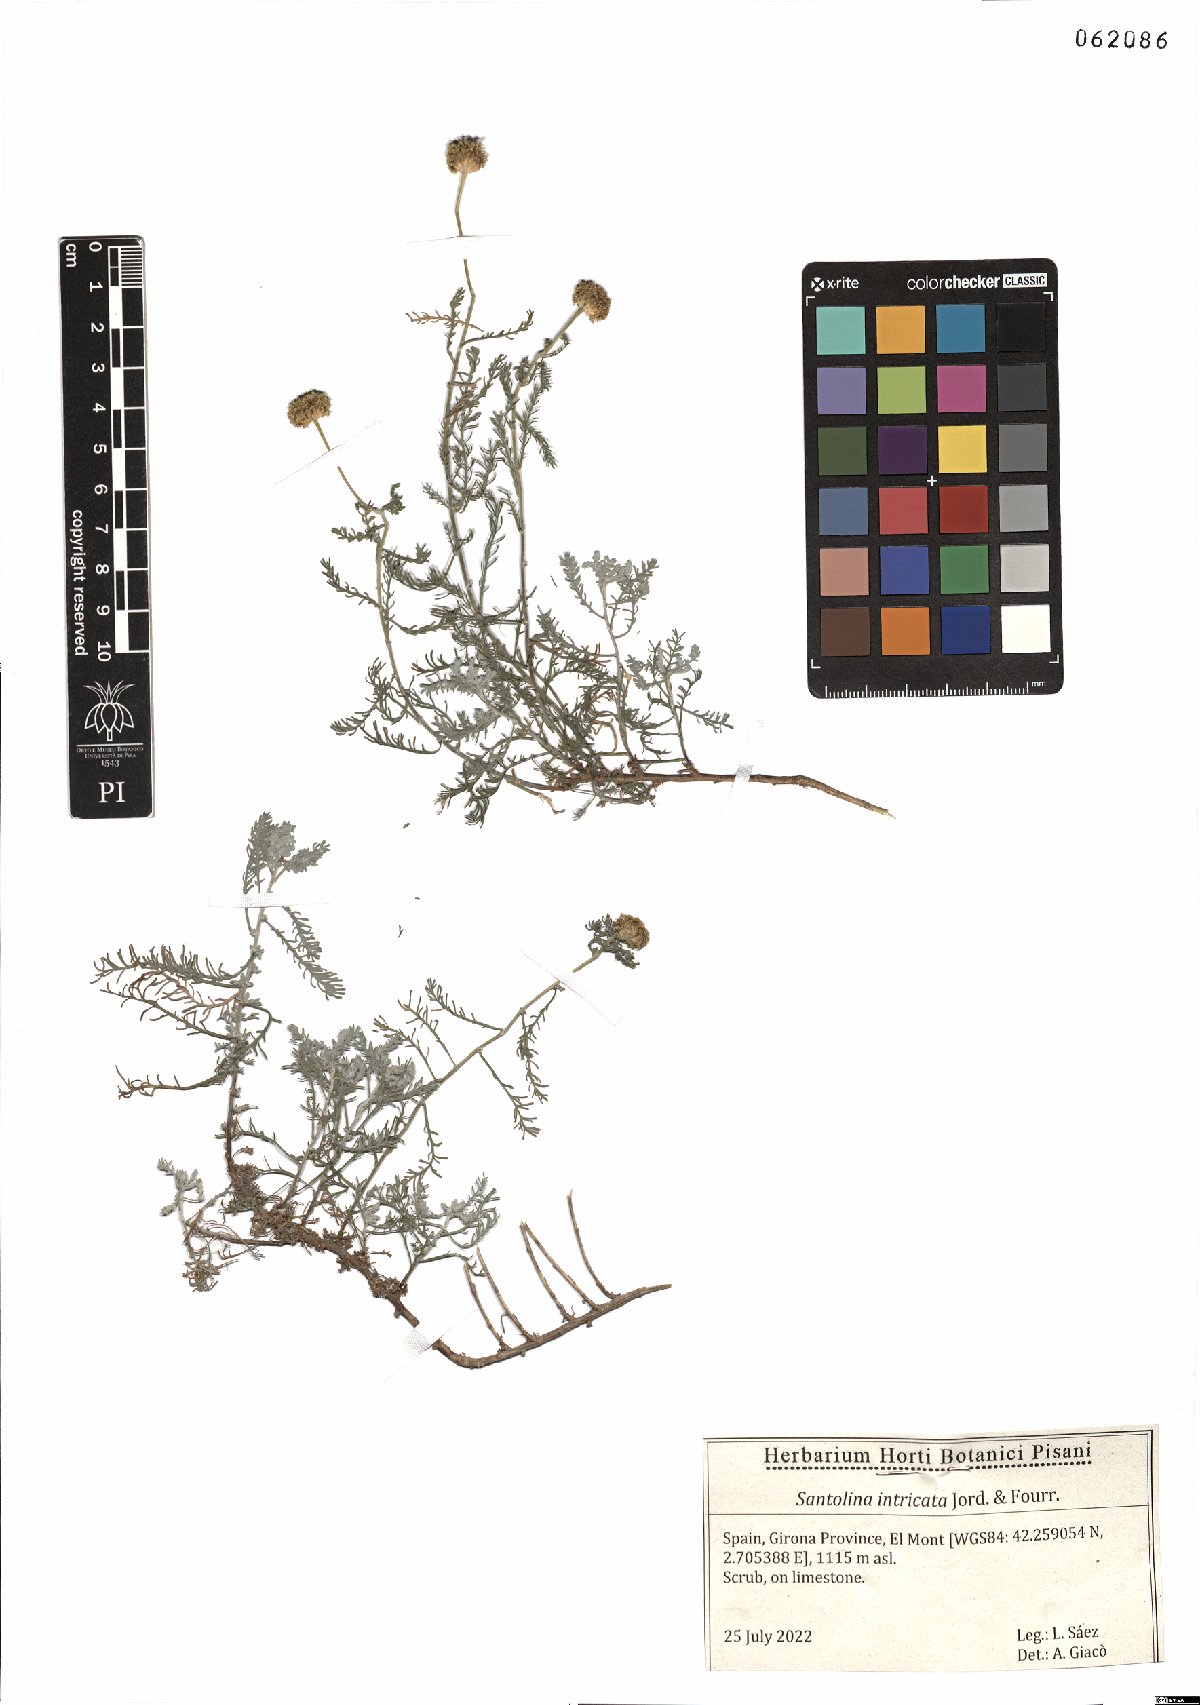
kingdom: Plantae
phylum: Tracheophyta
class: Magnoliopsida
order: Asterales
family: Asteraceae
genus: Santolina
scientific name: Santolina benthamiana
